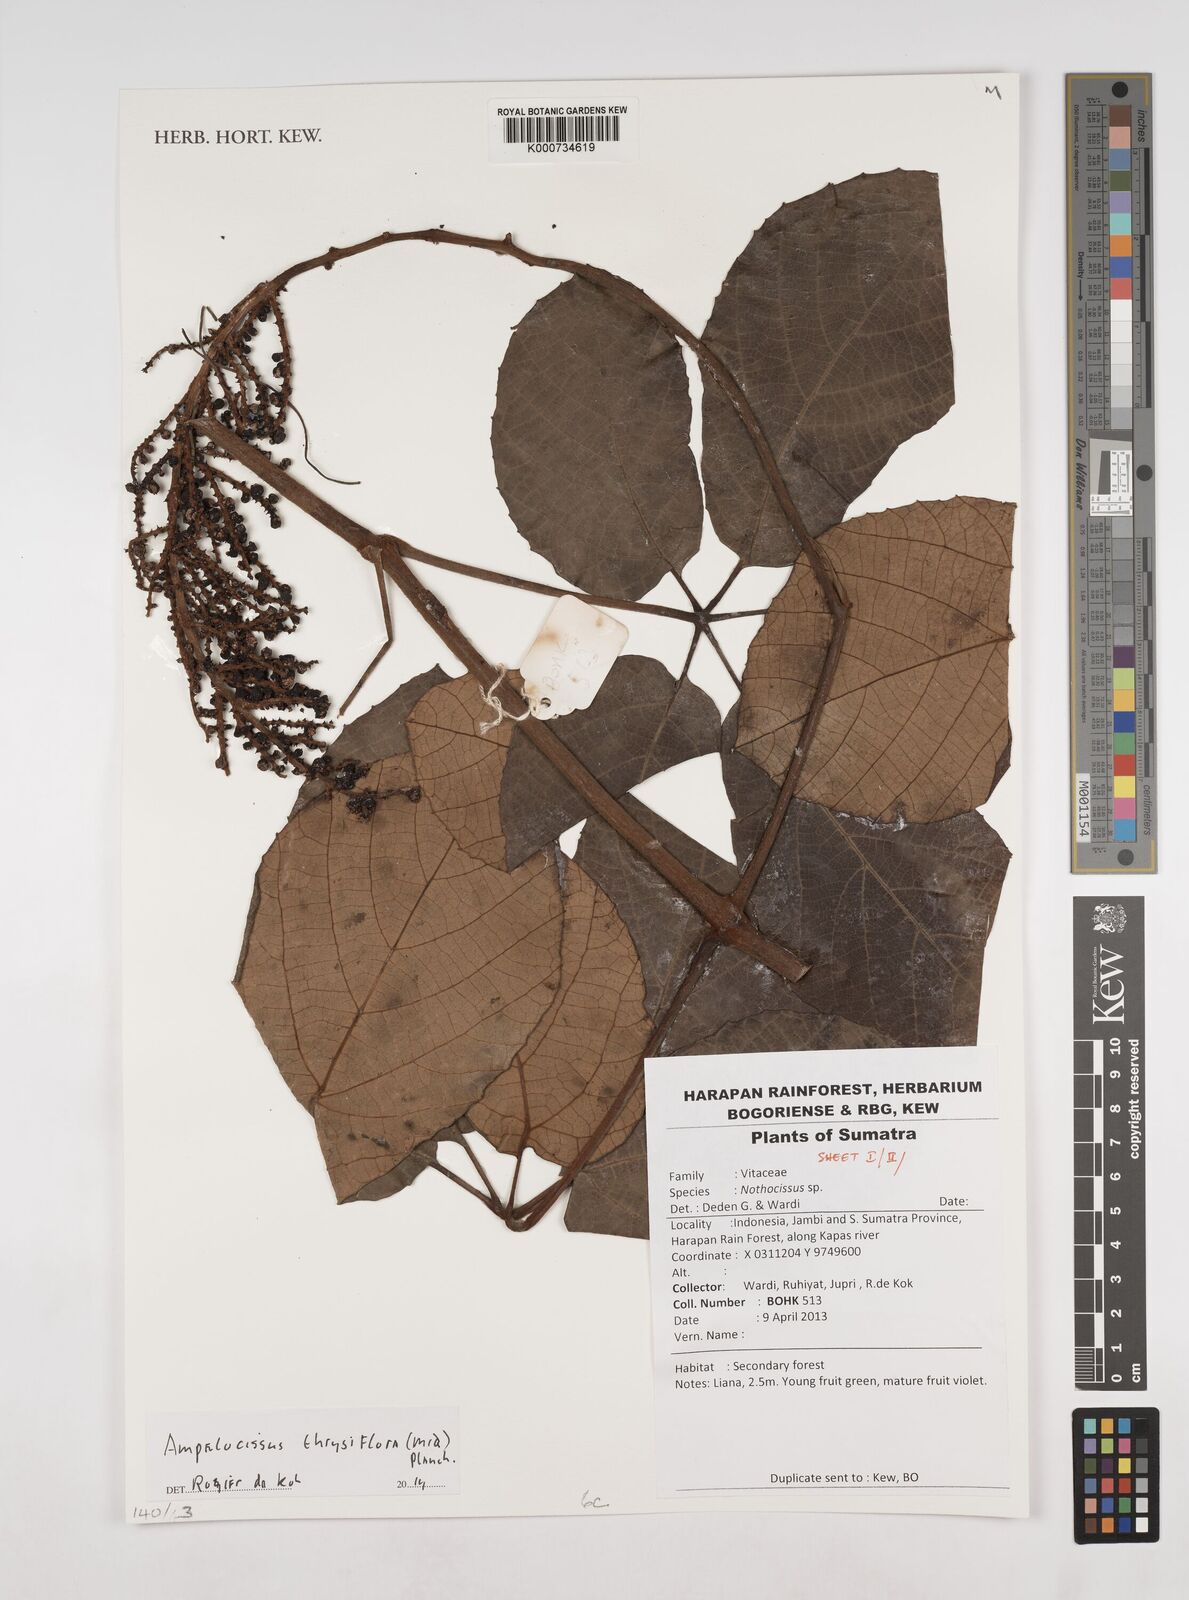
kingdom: Plantae
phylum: Tracheophyta
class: Magnoliopsida
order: Vitales
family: Vitaceae
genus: Ampelocissus
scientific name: Ampelocissus thyrsiflora
